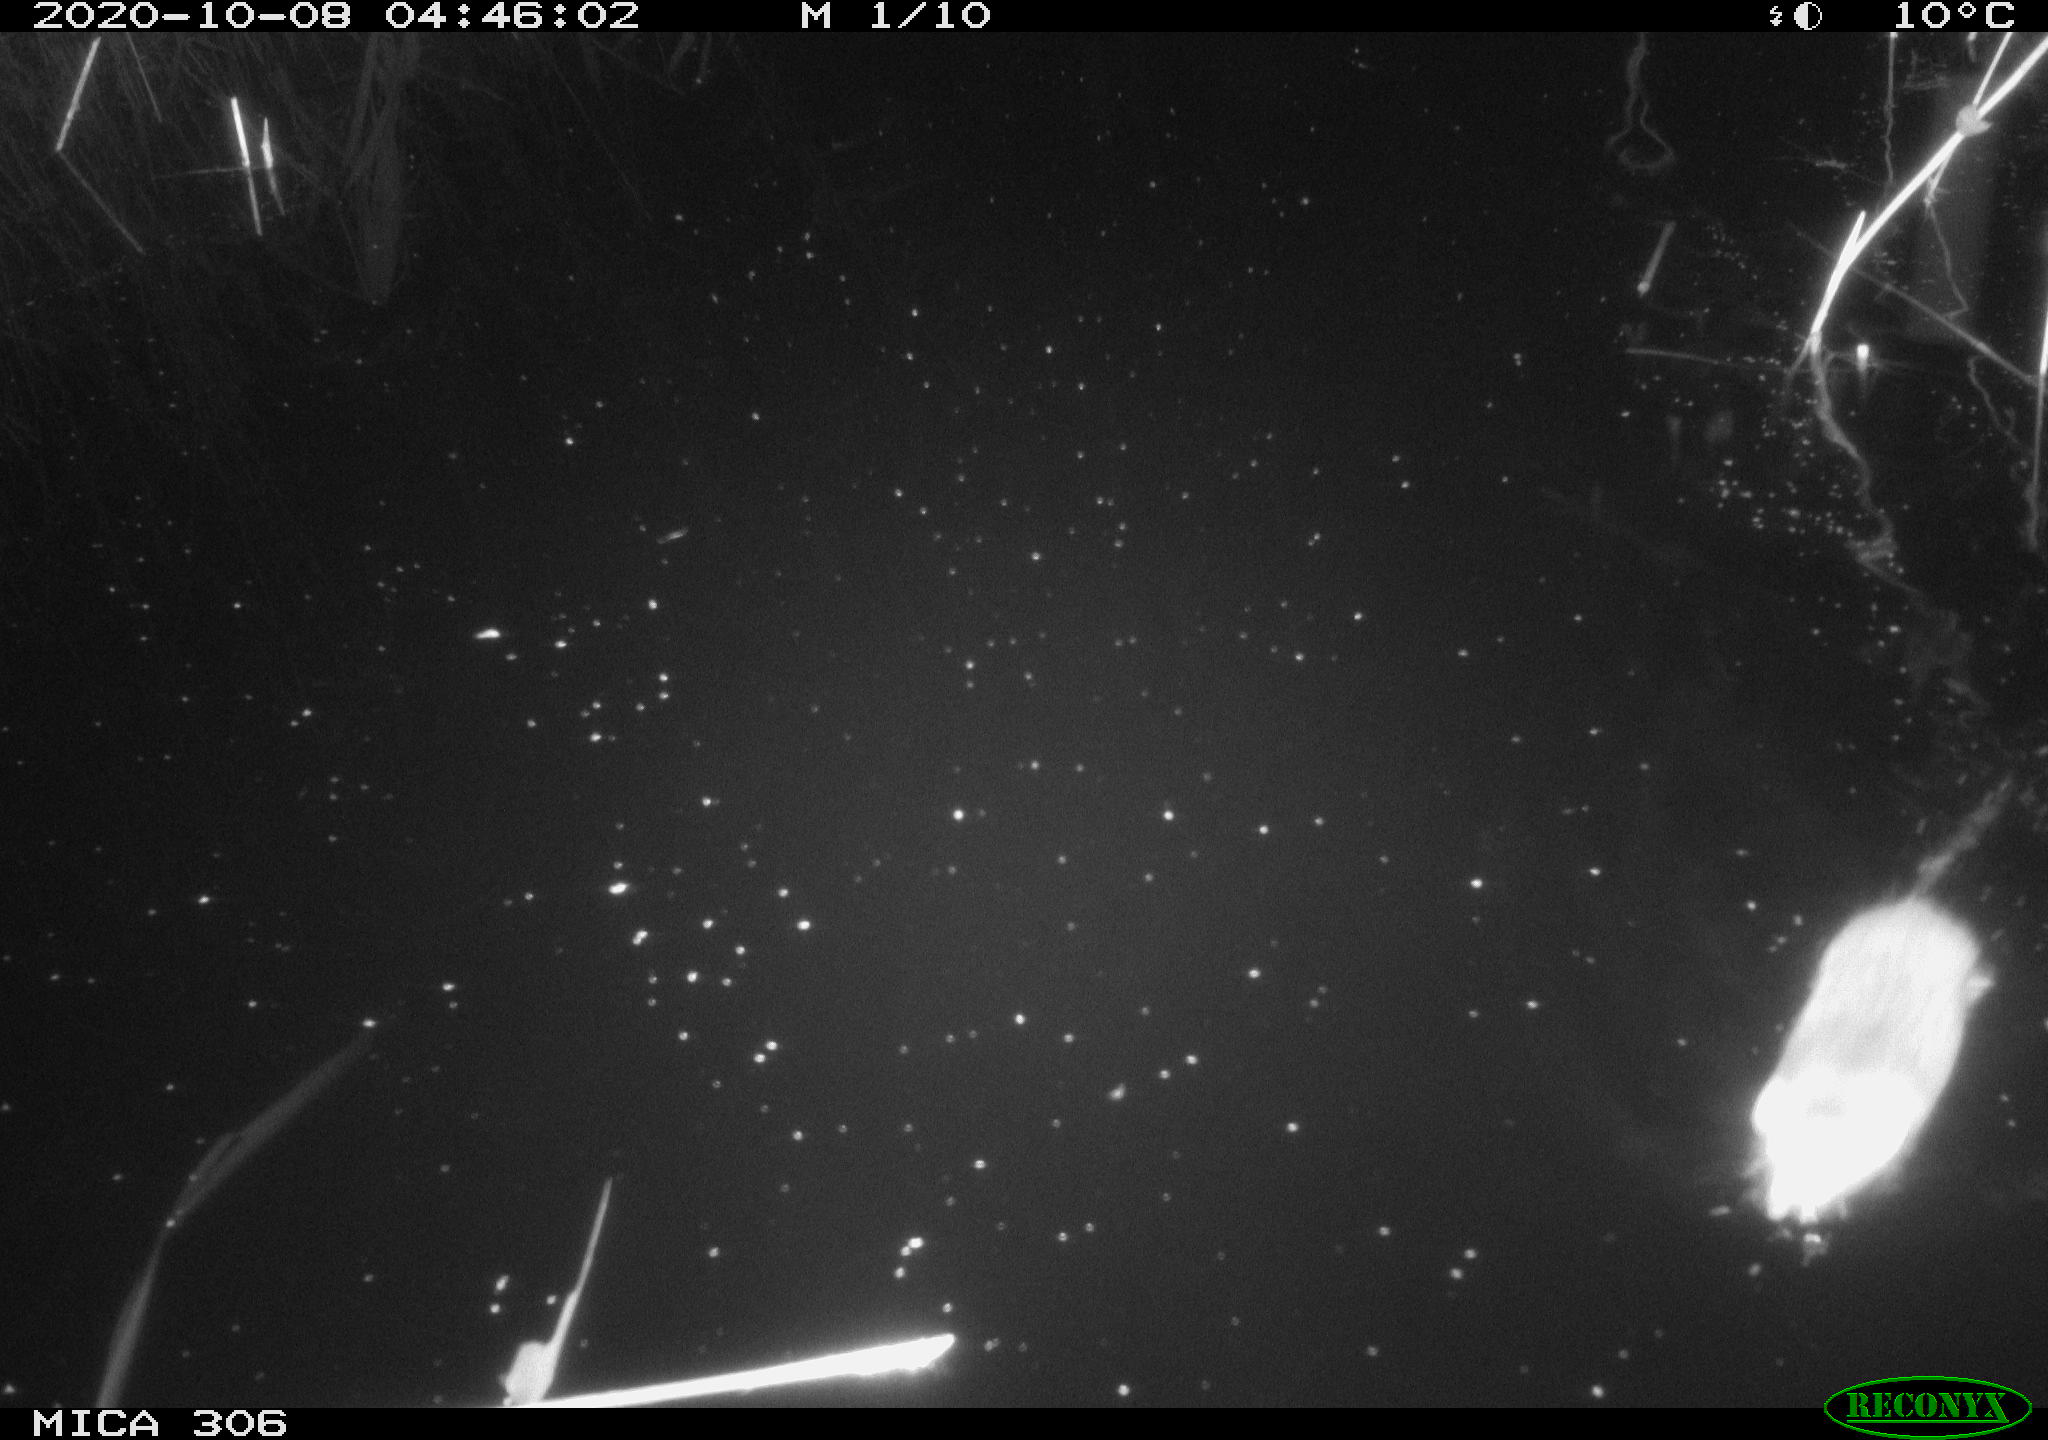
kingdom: Animalia
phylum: Chordata
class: Mammalia
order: Rodentia
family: Cricetidae
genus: Ondatra
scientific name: Ondatra zibethicus
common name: Muskrat
